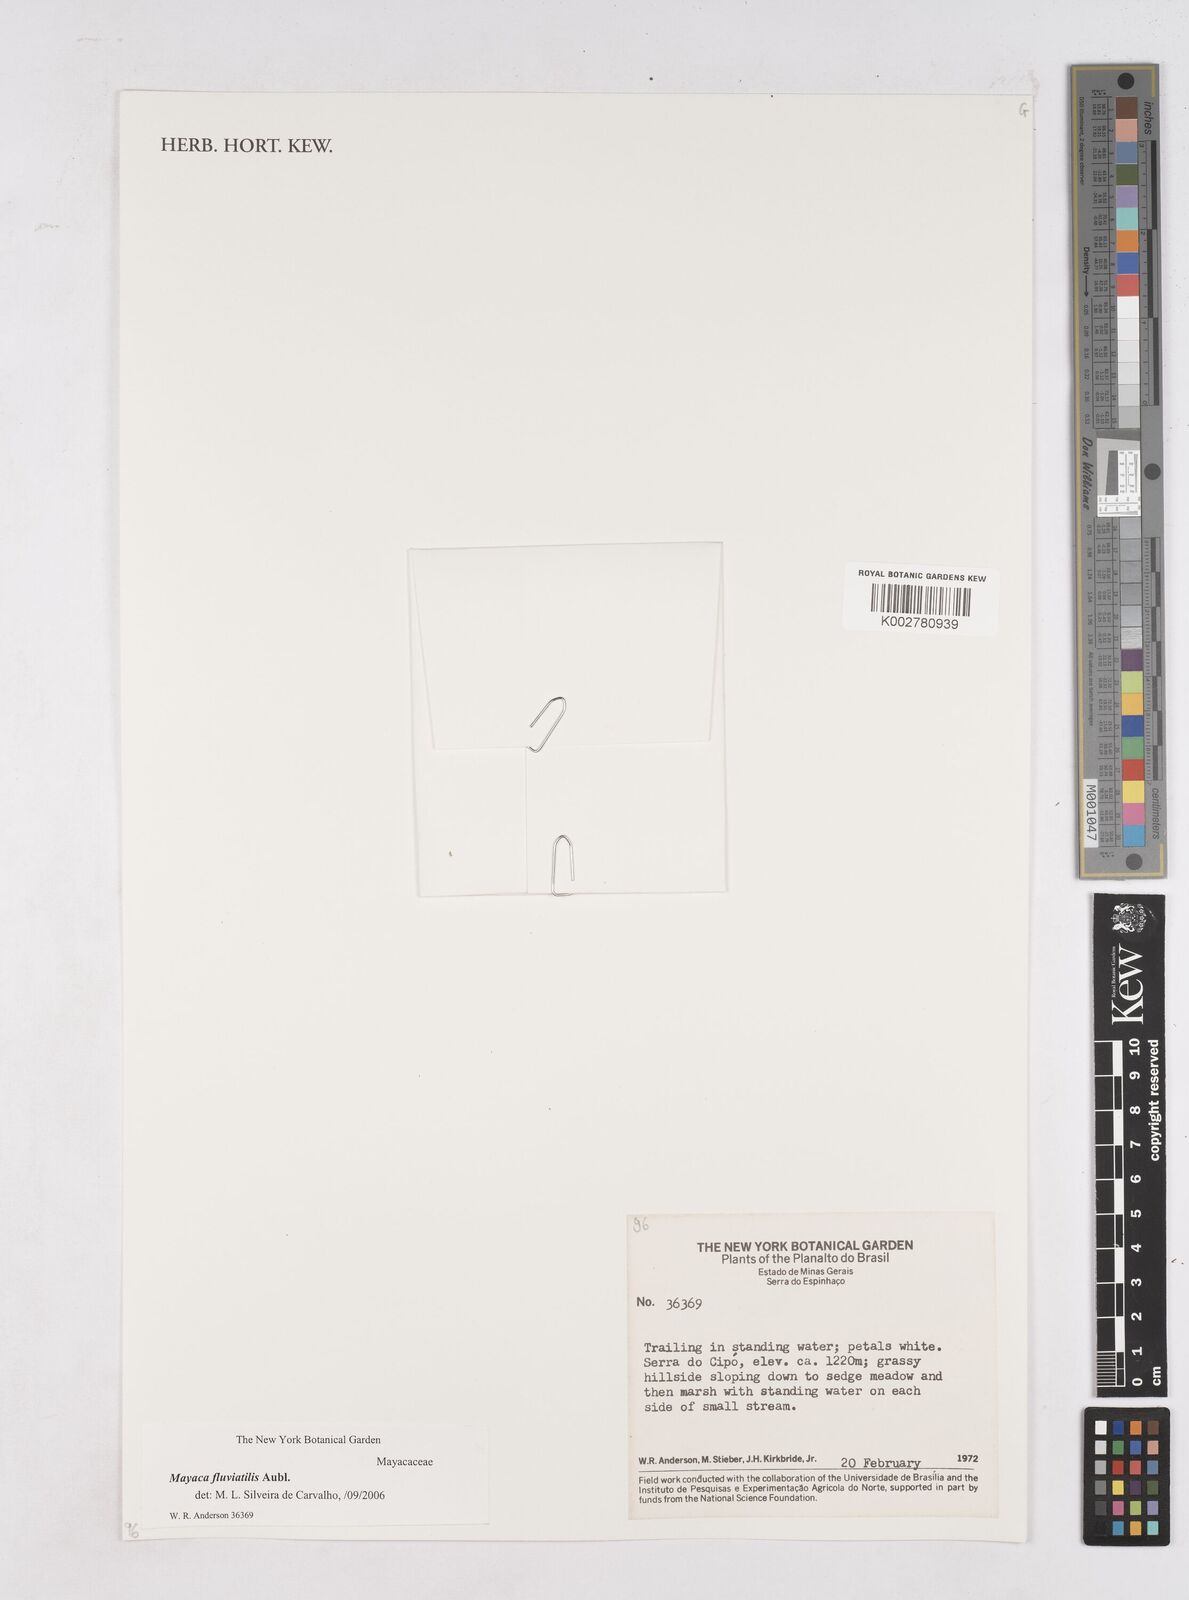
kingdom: Plantae
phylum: Tracheophyta
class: Liliopsida
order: Poales
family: Mayacaceae
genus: Mayaca
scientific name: Mayaca fluviatilis
